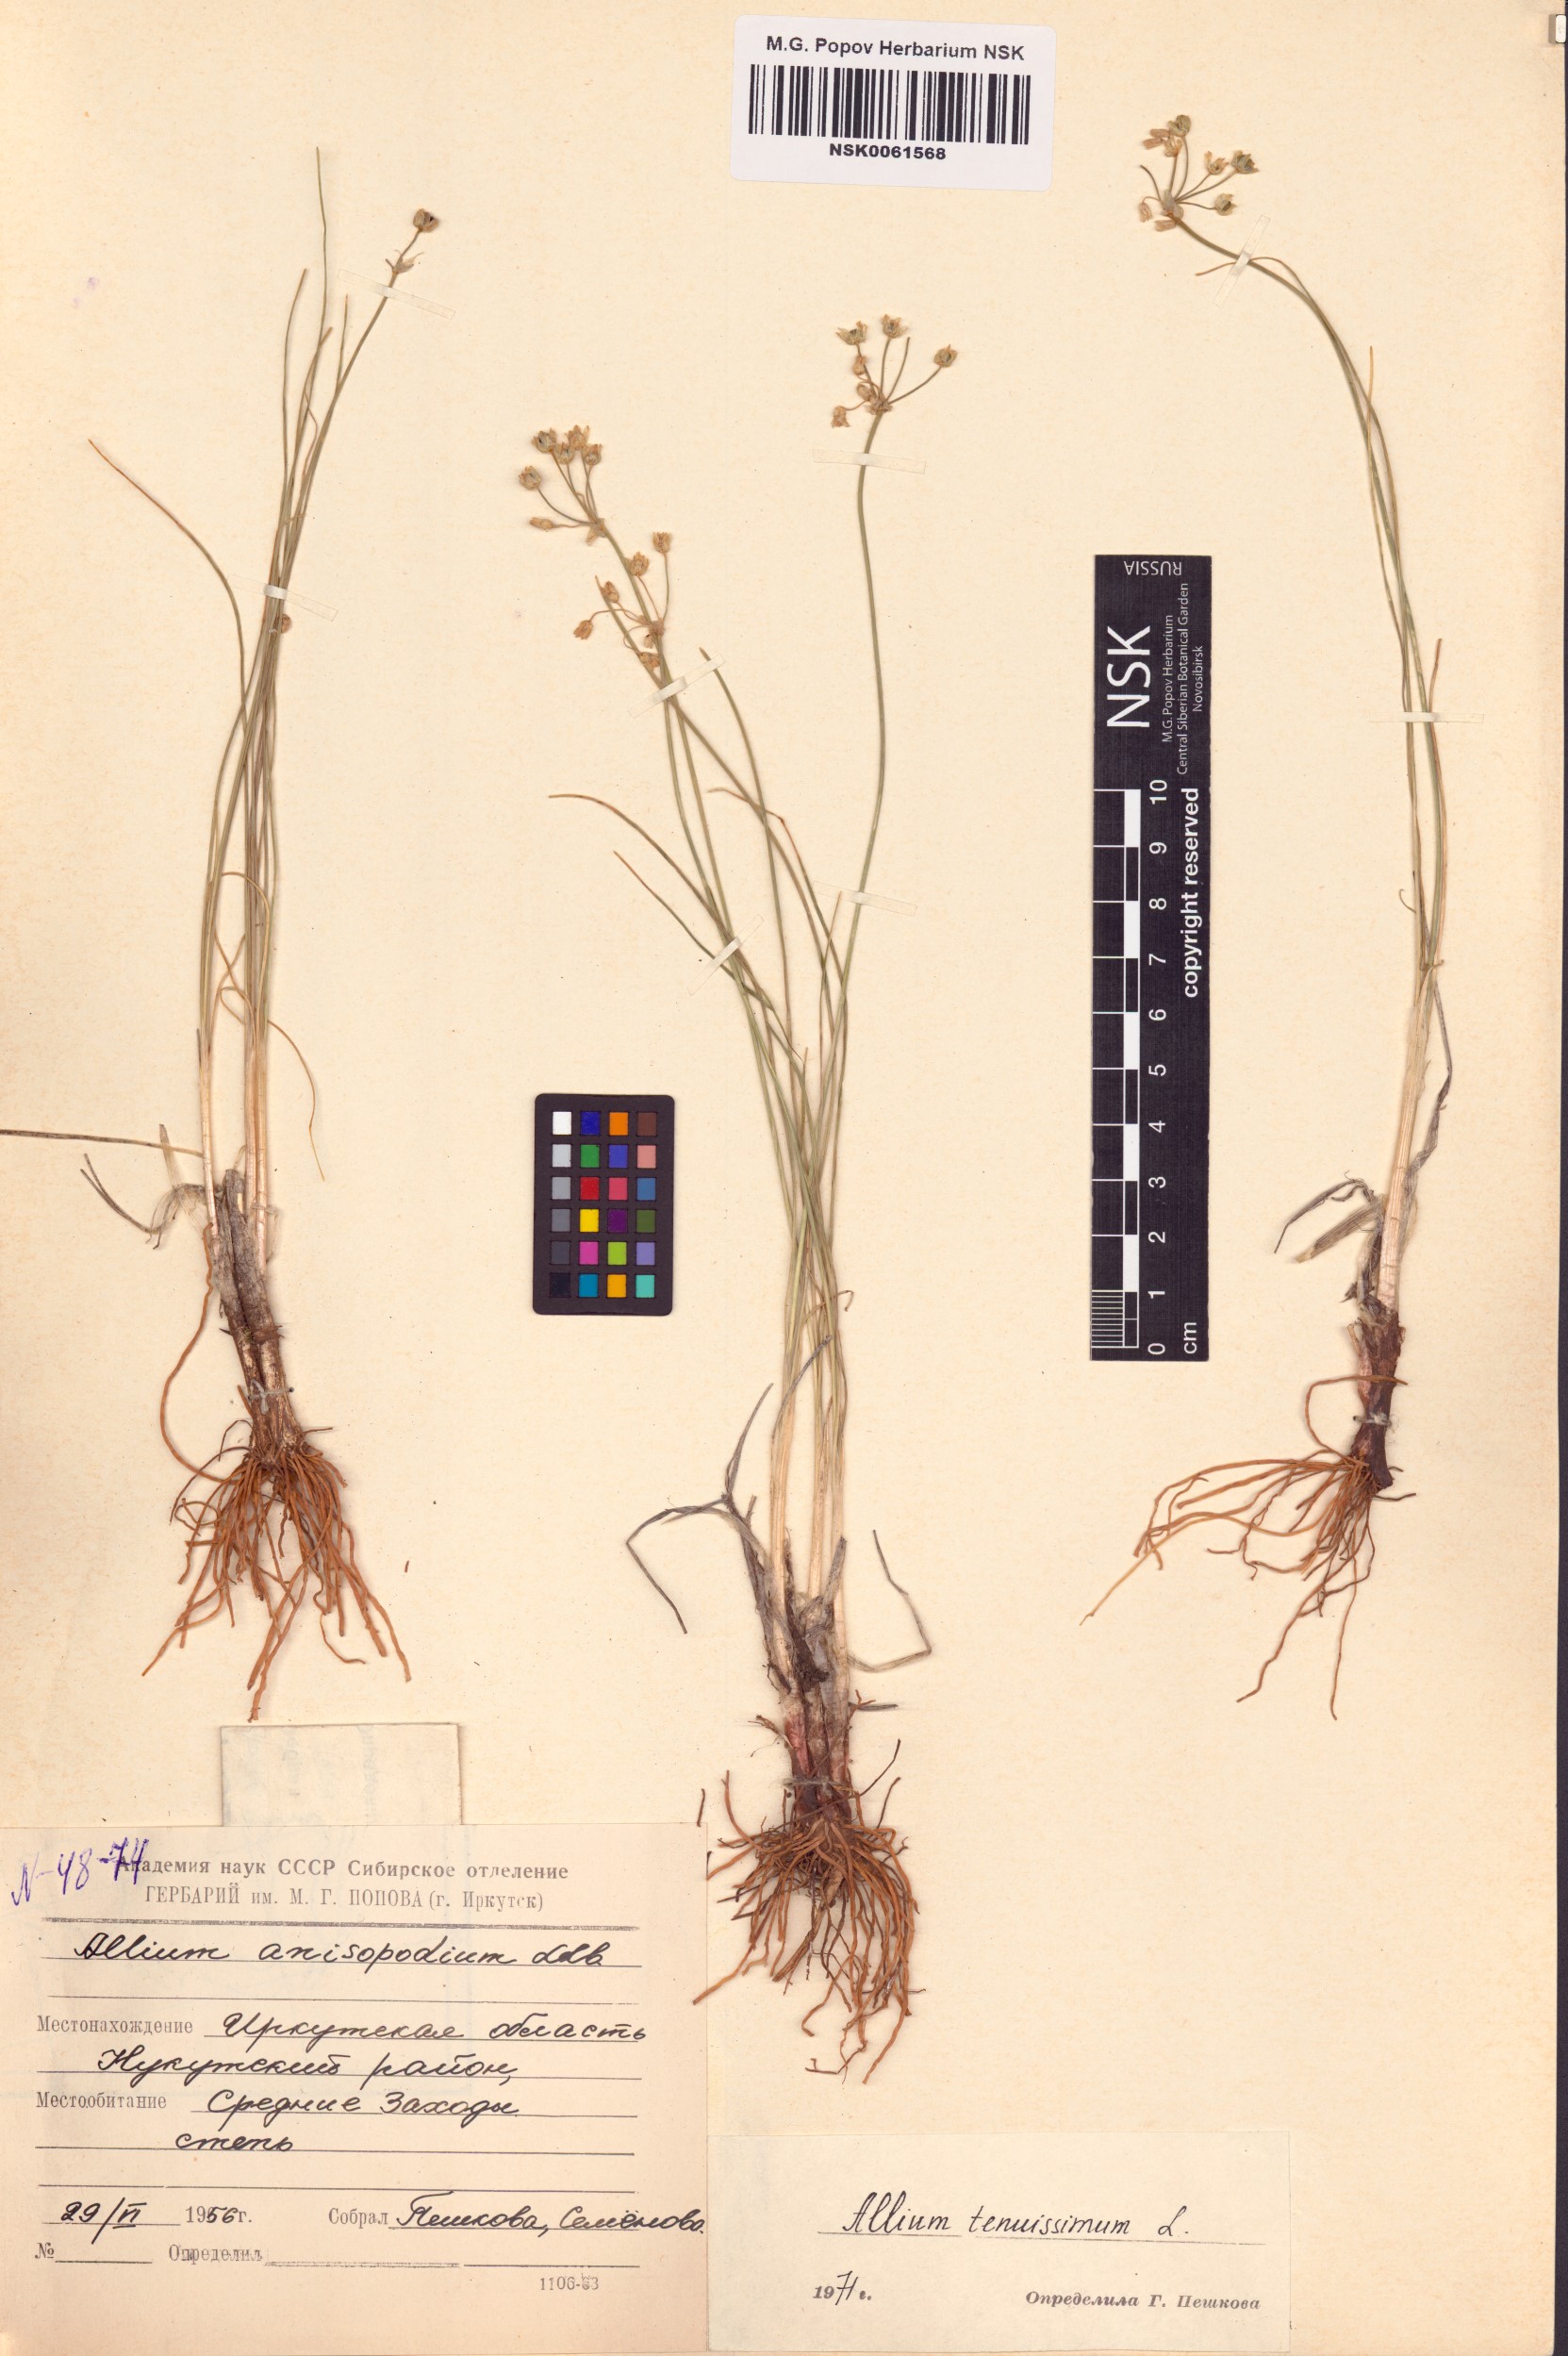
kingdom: Plantae
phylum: Tracheophyta
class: Liliopsida
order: Asparagales
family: Amaryllidaceae
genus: Allium
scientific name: Allium tenuissimum
